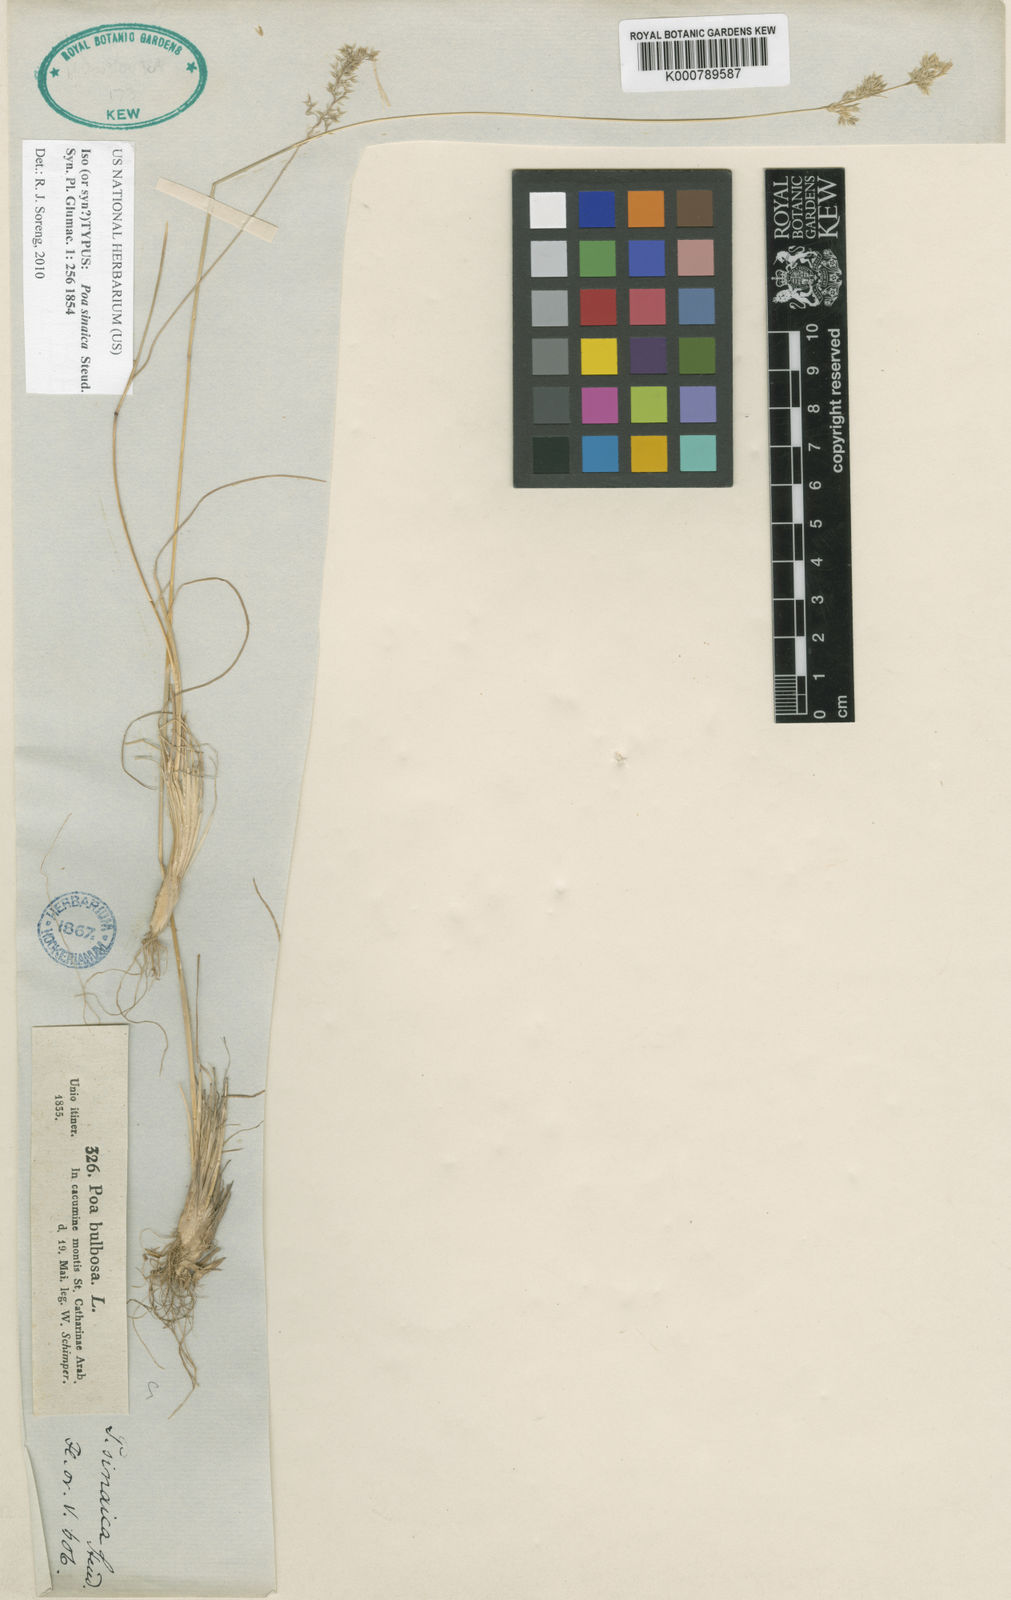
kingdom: Plantae
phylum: Tracheophyta
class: Liliopsida
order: Poales
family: Poaceae
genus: Poa
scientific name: Poa sinaica
